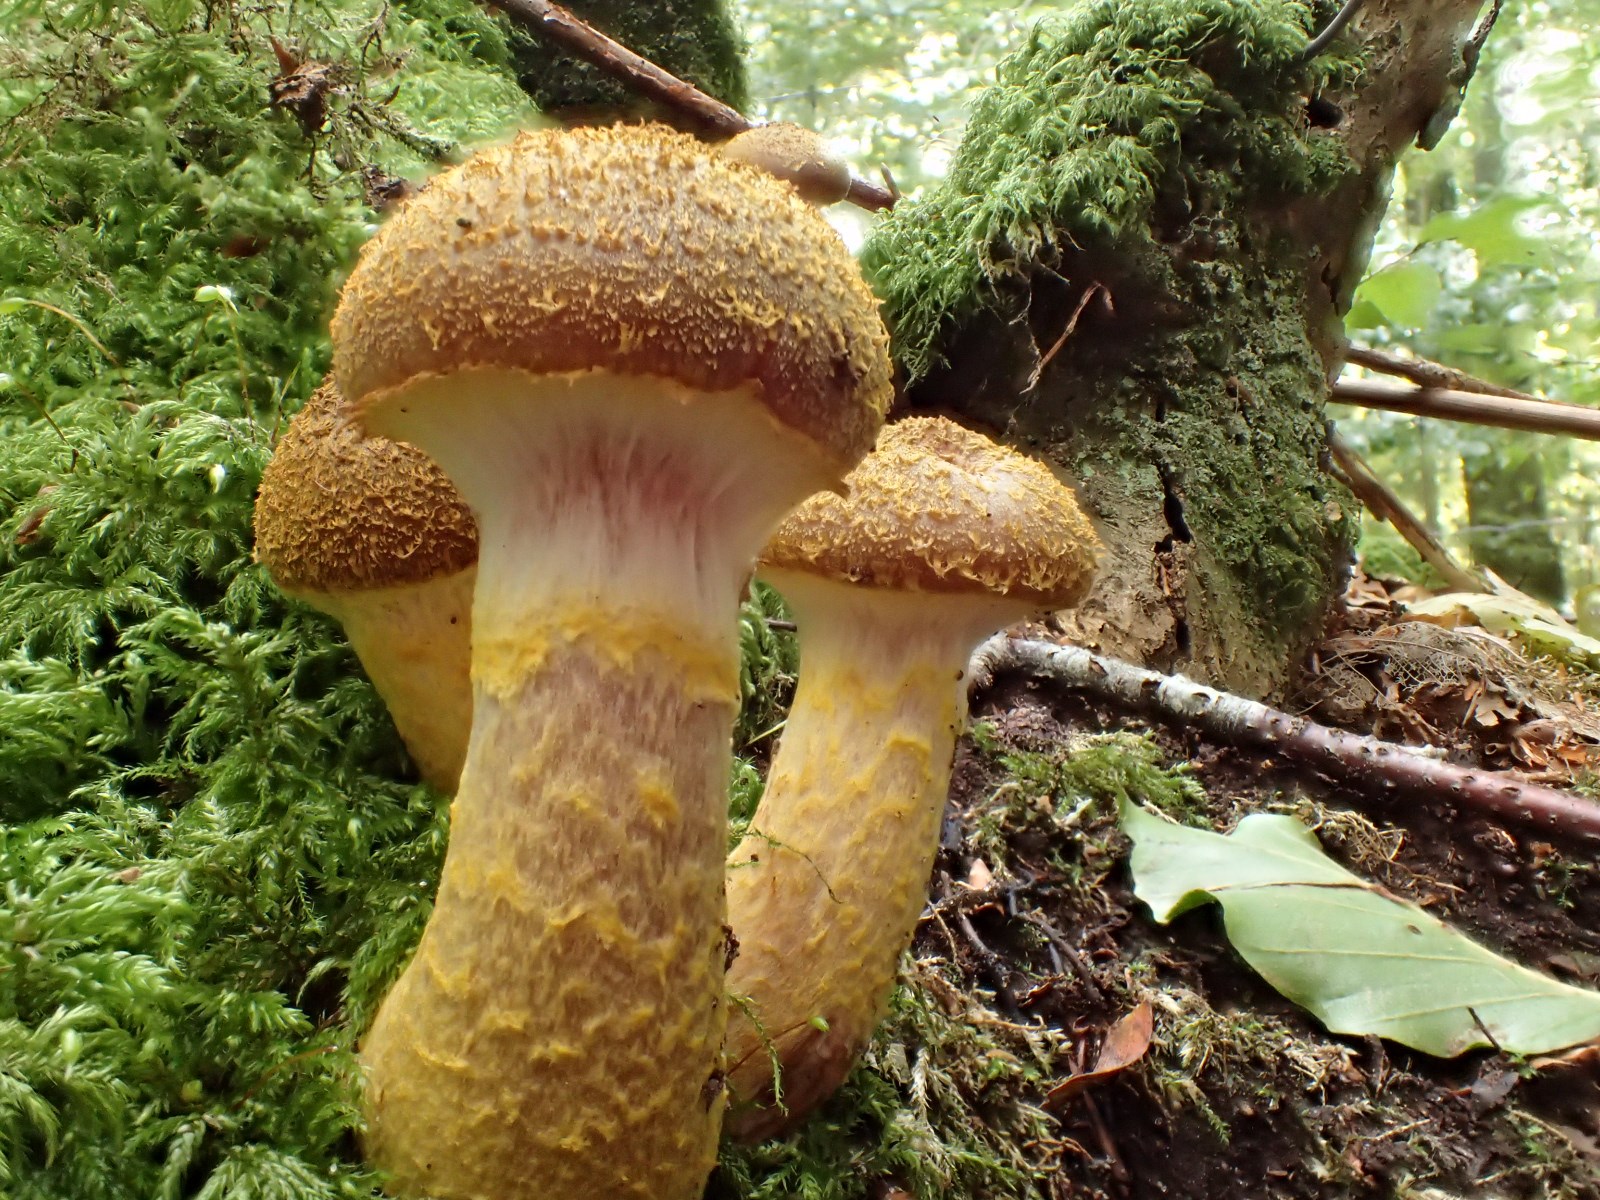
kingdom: Fungi
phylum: Basidiomycota
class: Agaricomycetes
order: Agaricales
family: Physalacriaceae
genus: Armillaria
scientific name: Armillaria lutea
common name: køllestokket honningsvamp
